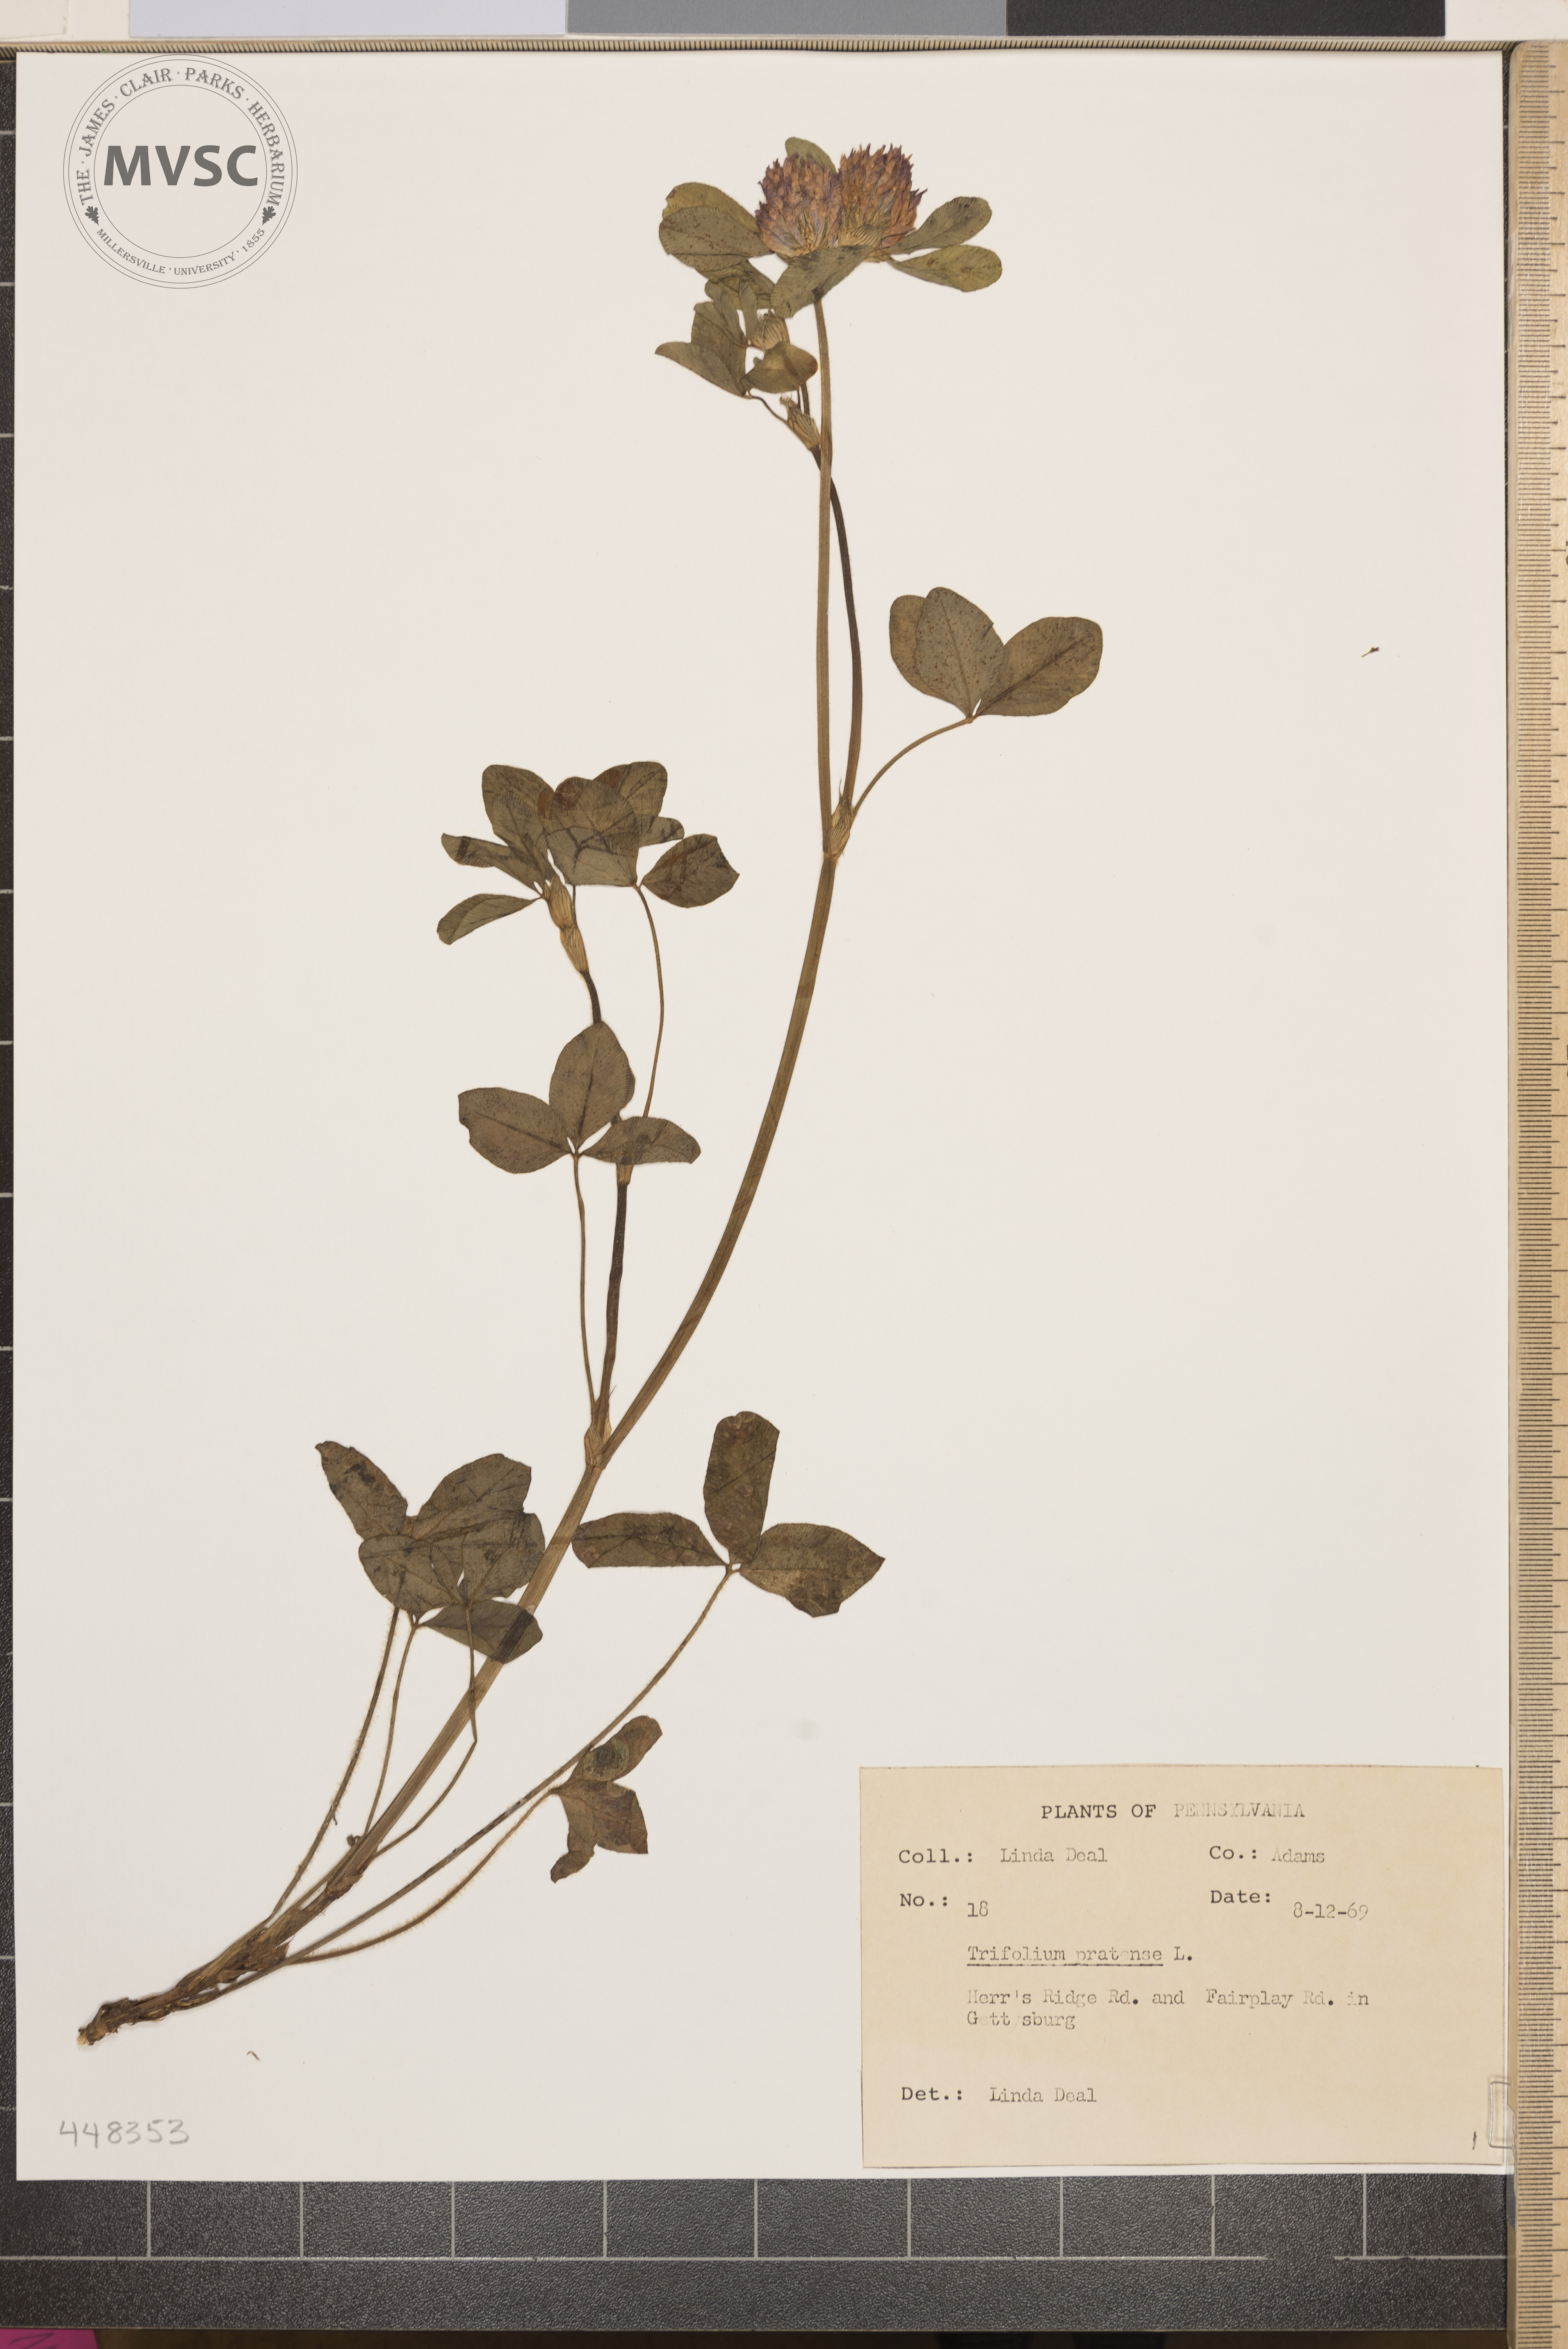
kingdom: Plantae
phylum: Tracheophyta
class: Magnoliopsida
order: Fabales
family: Fabaceae
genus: Trifolium
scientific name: Trifolium pratense
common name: Red clover
